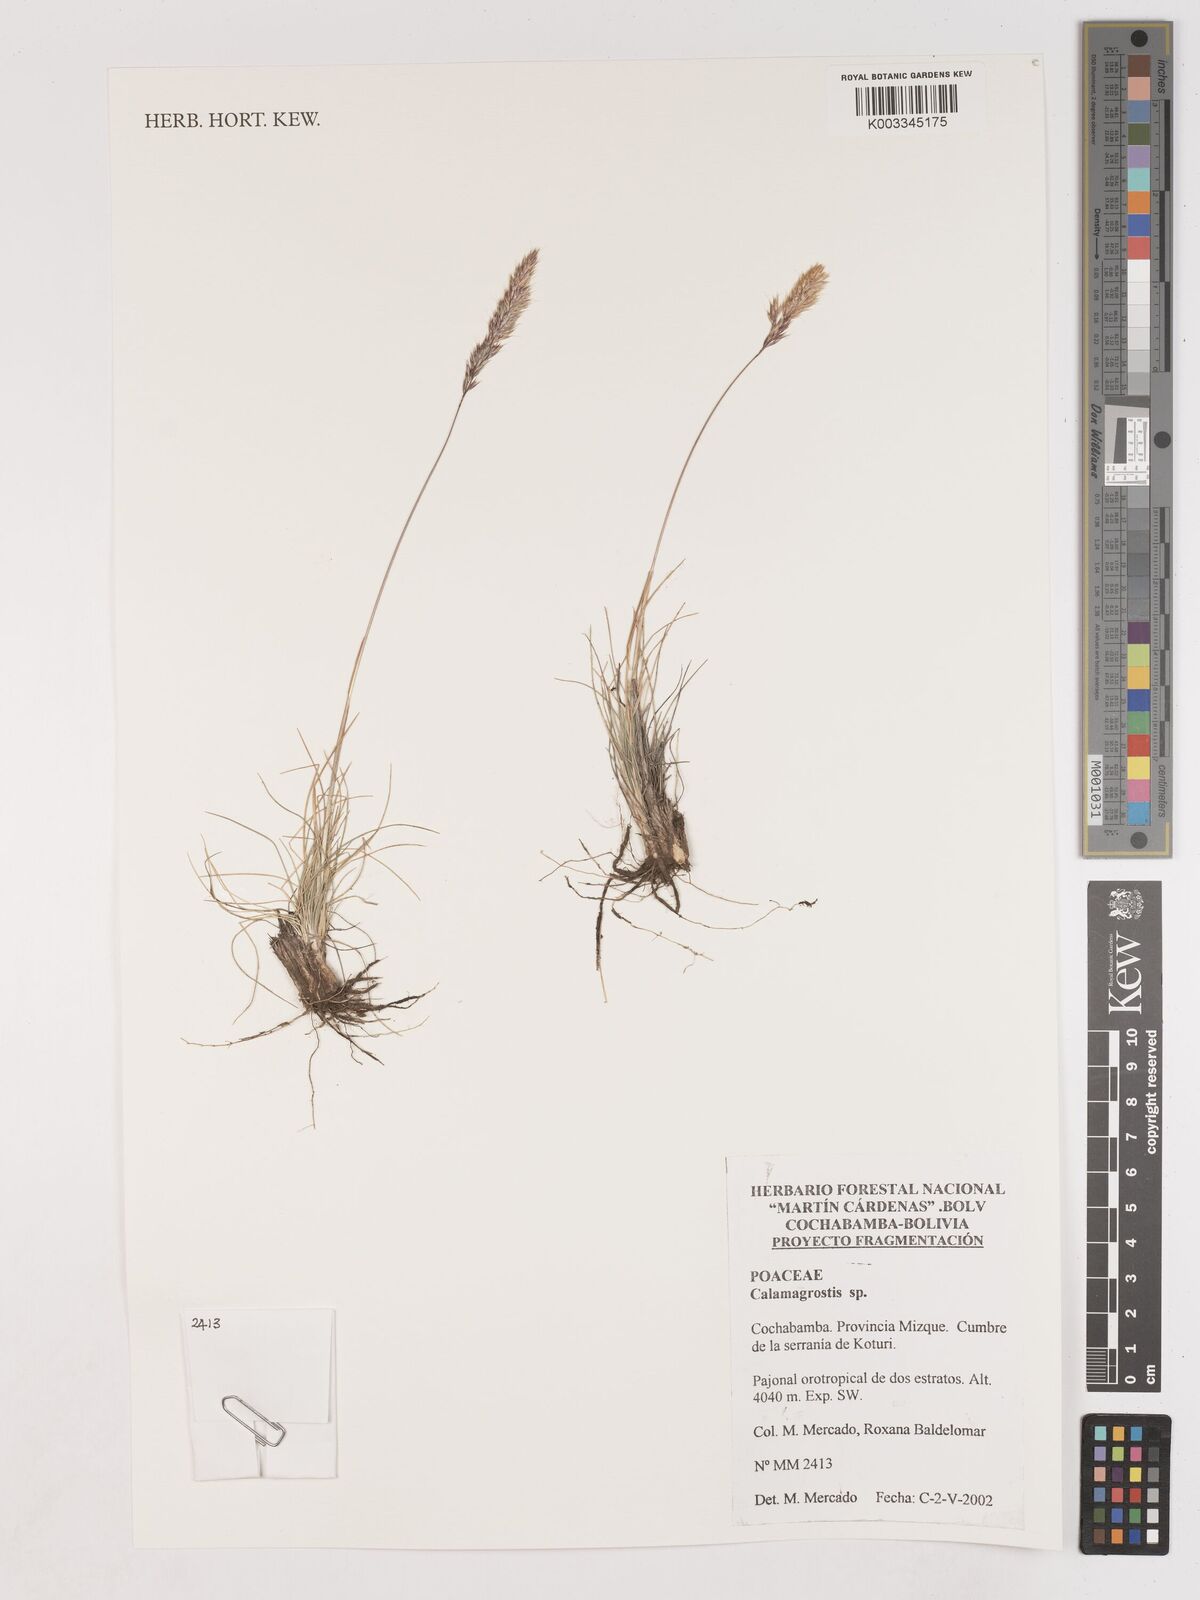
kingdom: Plantae
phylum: Tracheophyta
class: Liliopsida
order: Poales
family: Poaceae
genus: Calamagrostis
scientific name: Calamagrostis
